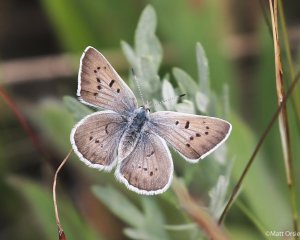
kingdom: Animalia
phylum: Arthropoda
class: Insecta
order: Lepidoptera
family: Lycaenidae
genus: Lycaena
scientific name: Lycaena heteronea
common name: Blue Copper
